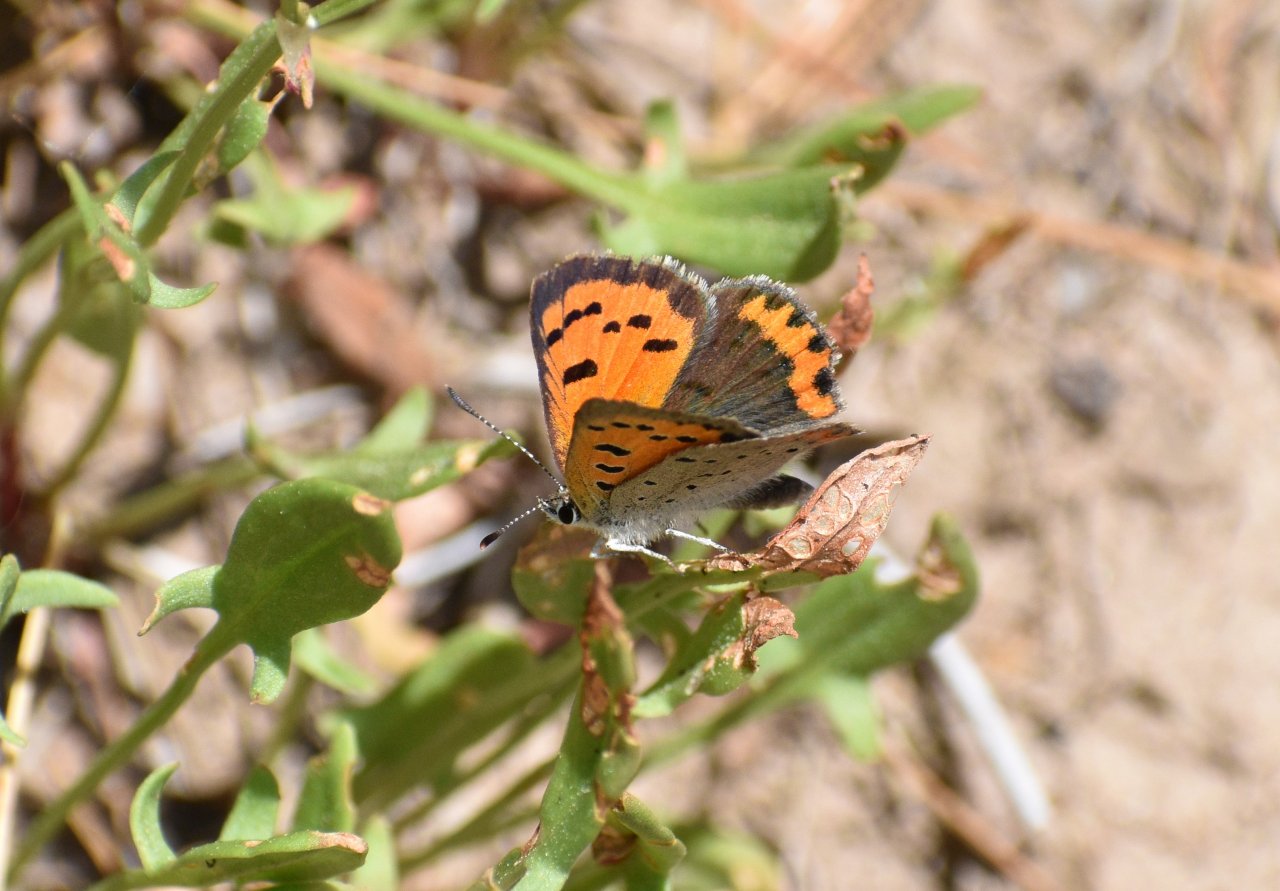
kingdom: Animalia
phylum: Arthropoda
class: Insecta
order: Lepidoptera
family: Lycaenidae
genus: Lycaena
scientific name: Lycaena phlaeas
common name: American Copper
